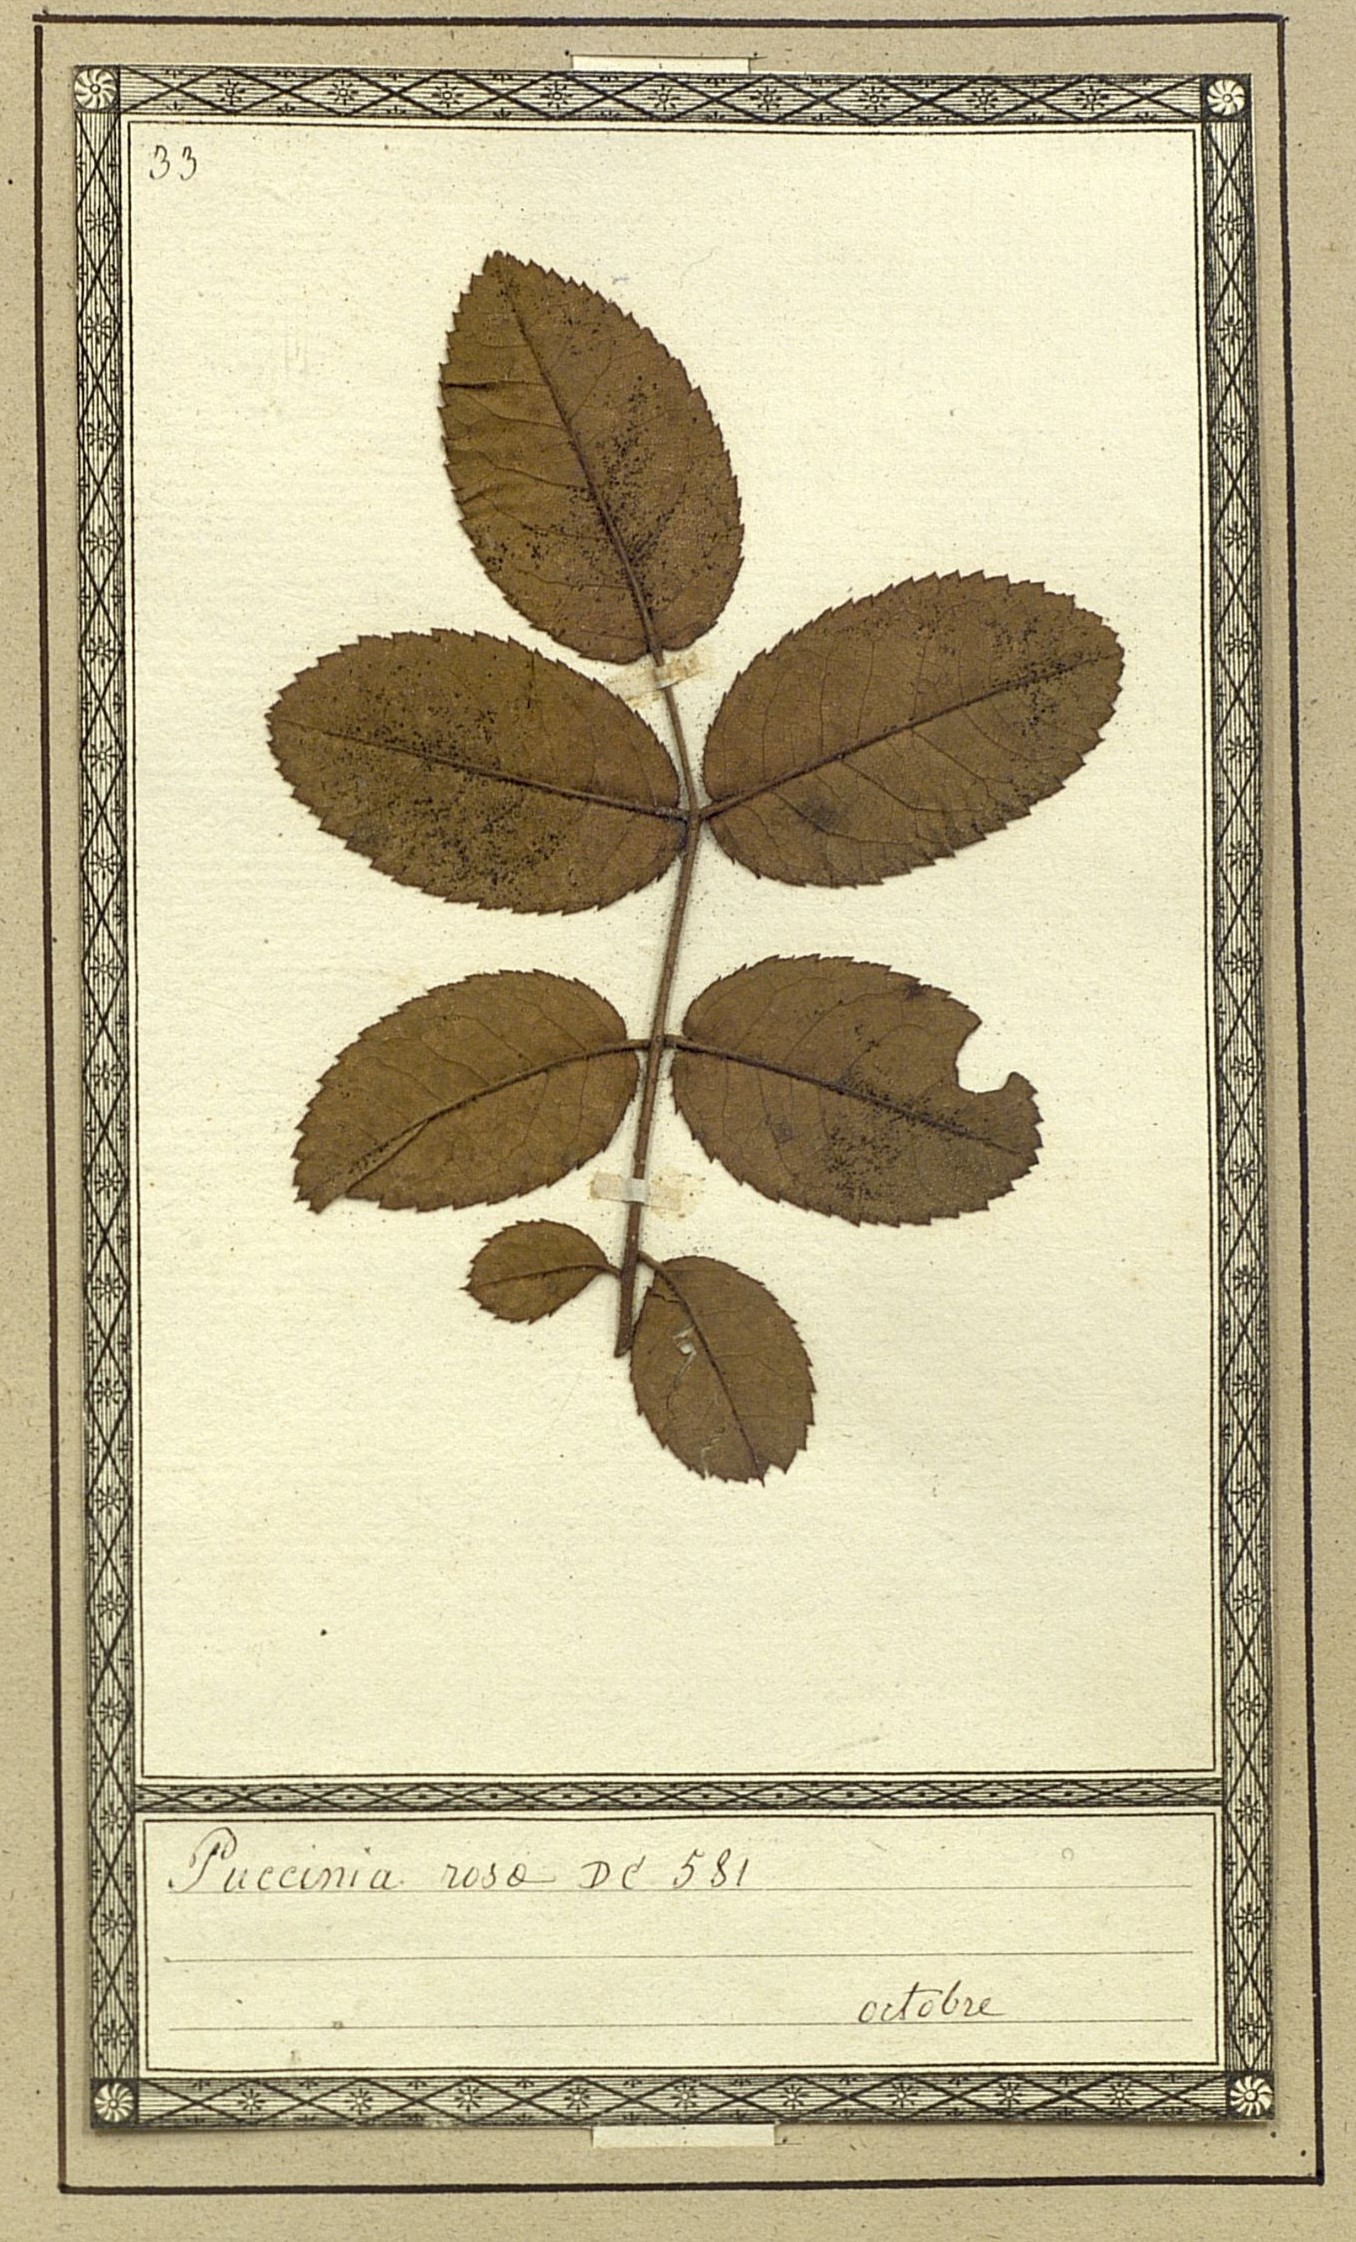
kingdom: Fungi
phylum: Basidiomycota
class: Pucciniomycetes
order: Pucciniales
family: Pucciniaceae
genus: Puccinia
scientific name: Puccinia
